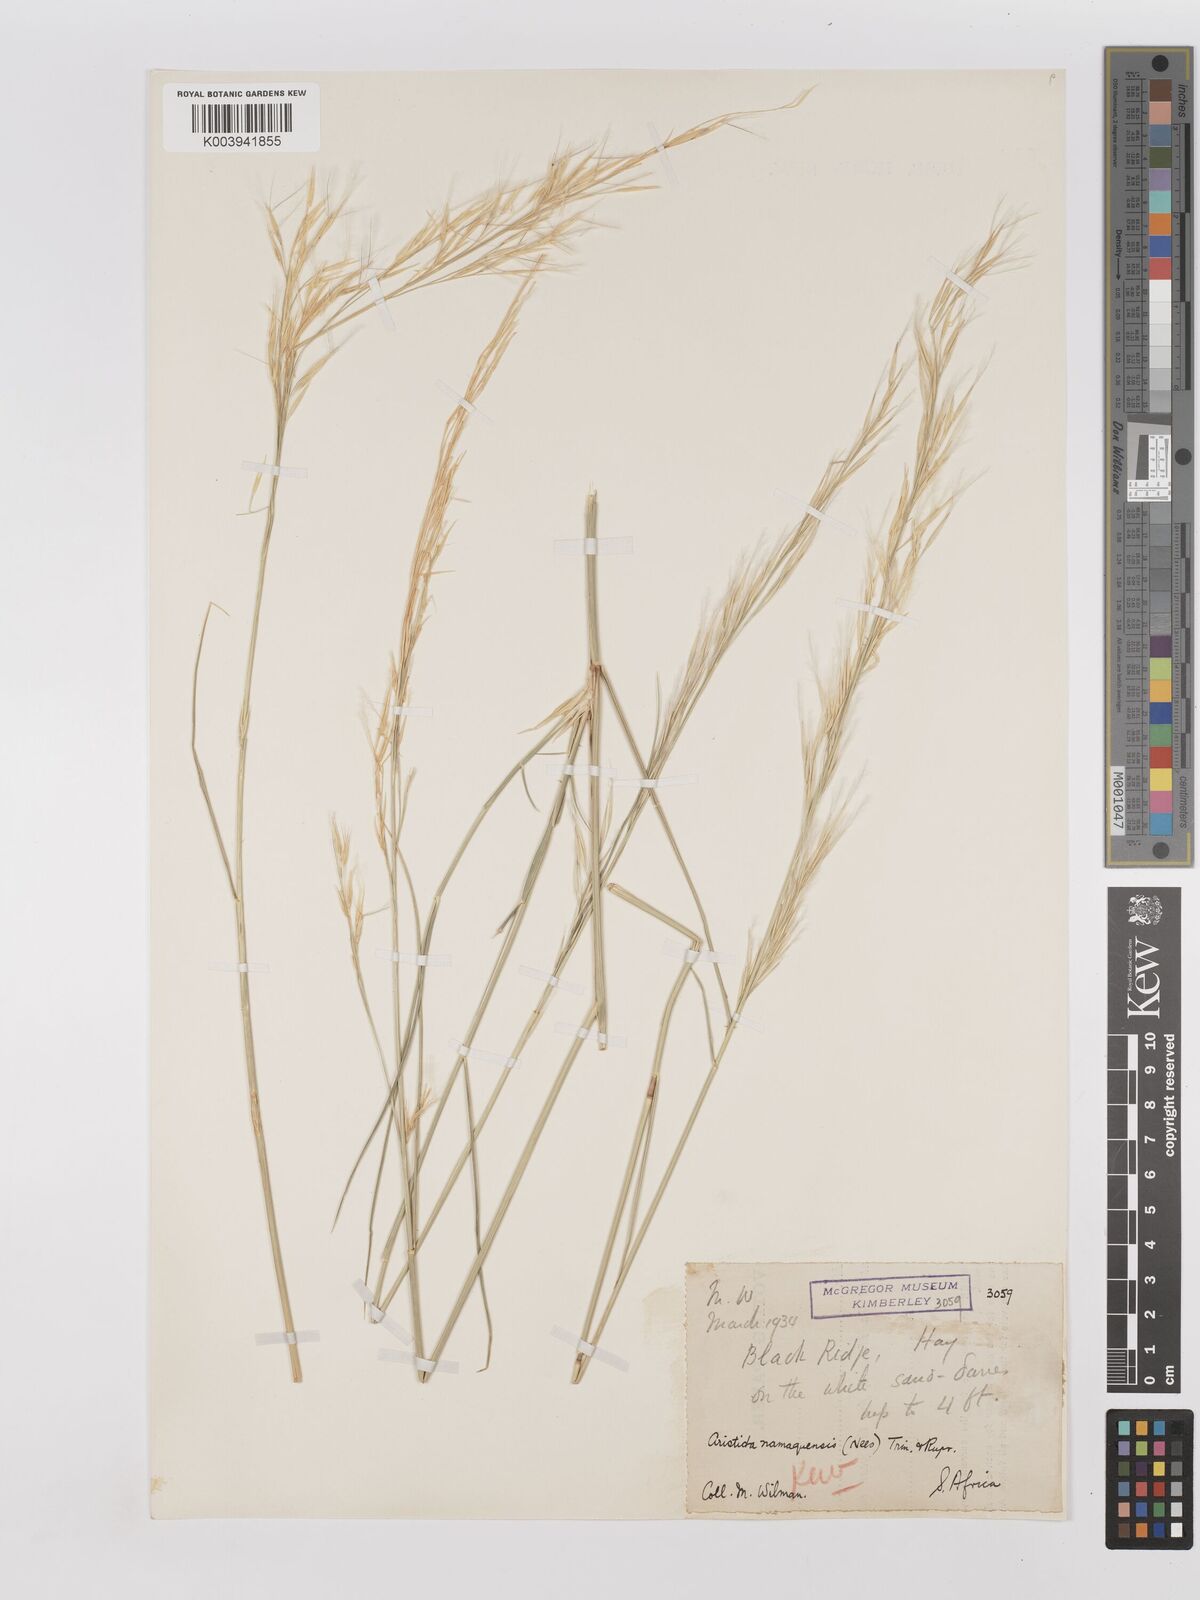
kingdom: Plantae
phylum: Tracheophyta
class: Liliopsida
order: Poales
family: Poaceae
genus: Stipagrostis
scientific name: Stipagrostis namaquensis
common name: River bushman grass
